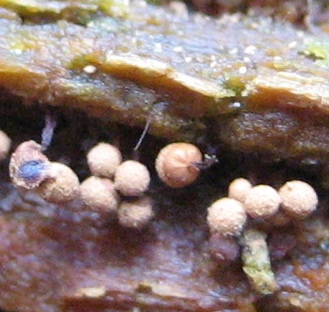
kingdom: Protozoa
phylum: Mycetozoa
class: Myxomycetes
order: Cribrariales
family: Cribrariaceae
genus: Cribraria
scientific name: Cribraria
